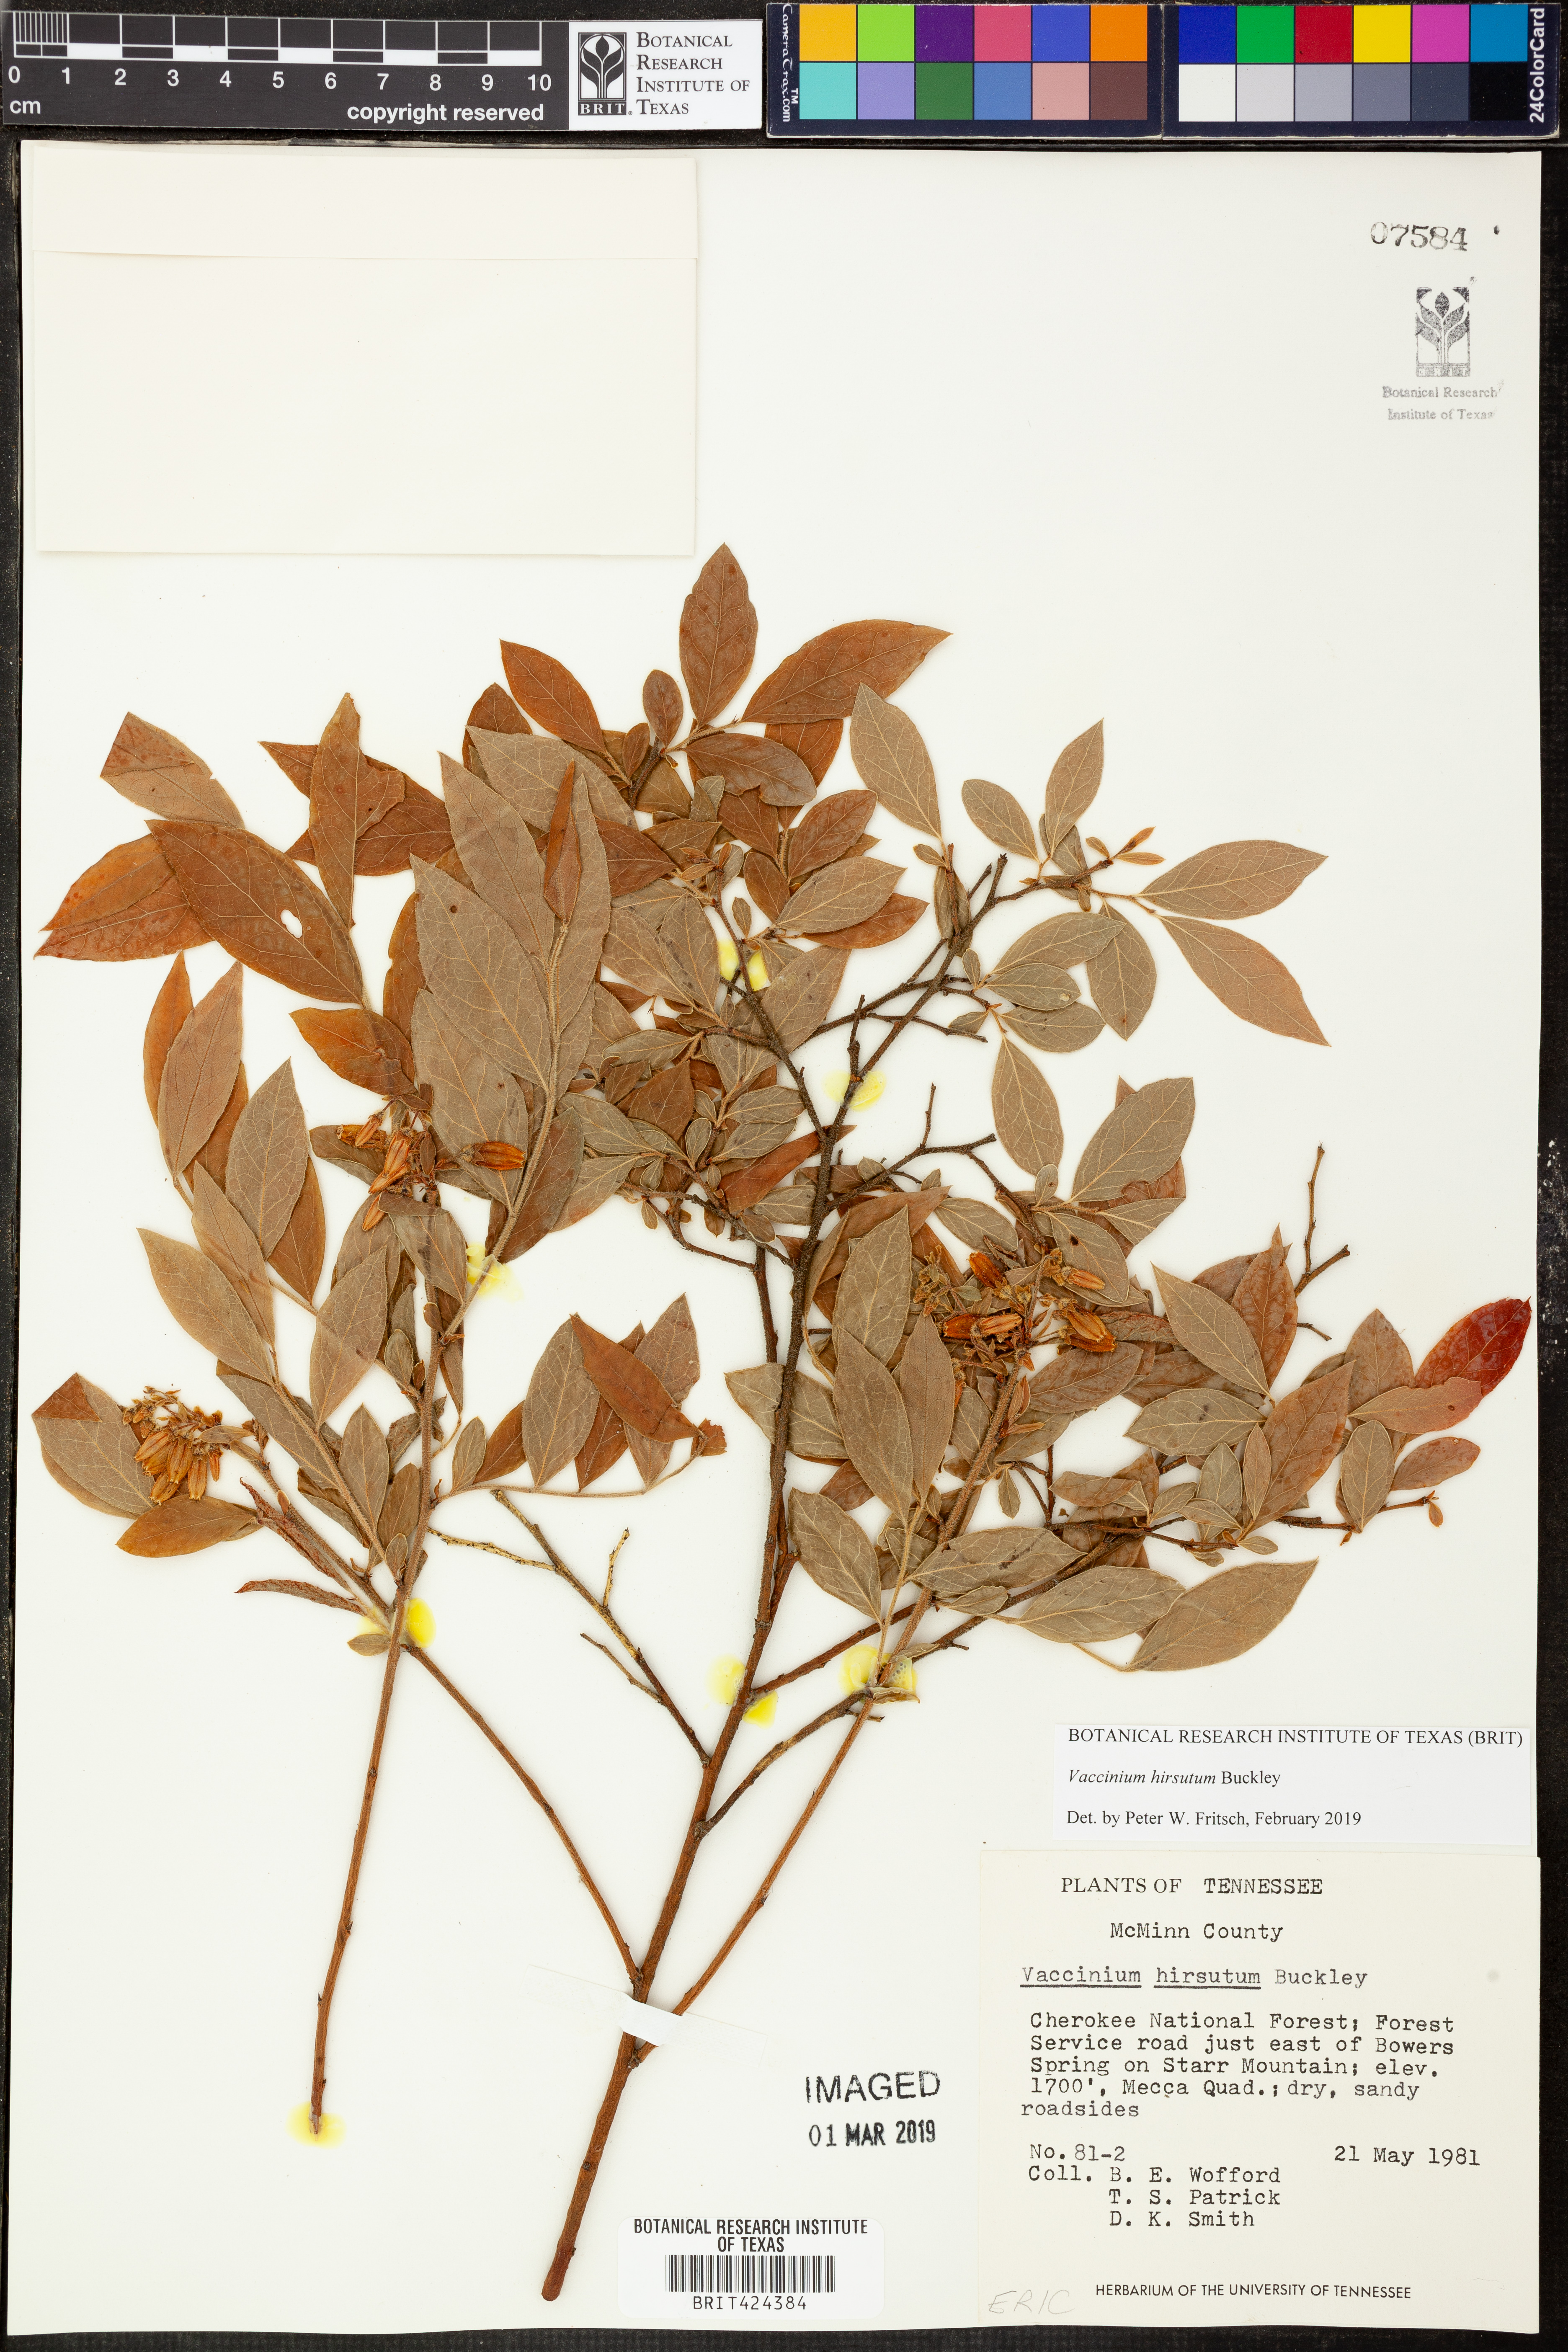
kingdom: Plantae
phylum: Tracheophyta
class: Magnoliopsida
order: Ericales
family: Ericaceae
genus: Vaccinium
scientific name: Vaccinium hirsutum
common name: Woolly-berry
